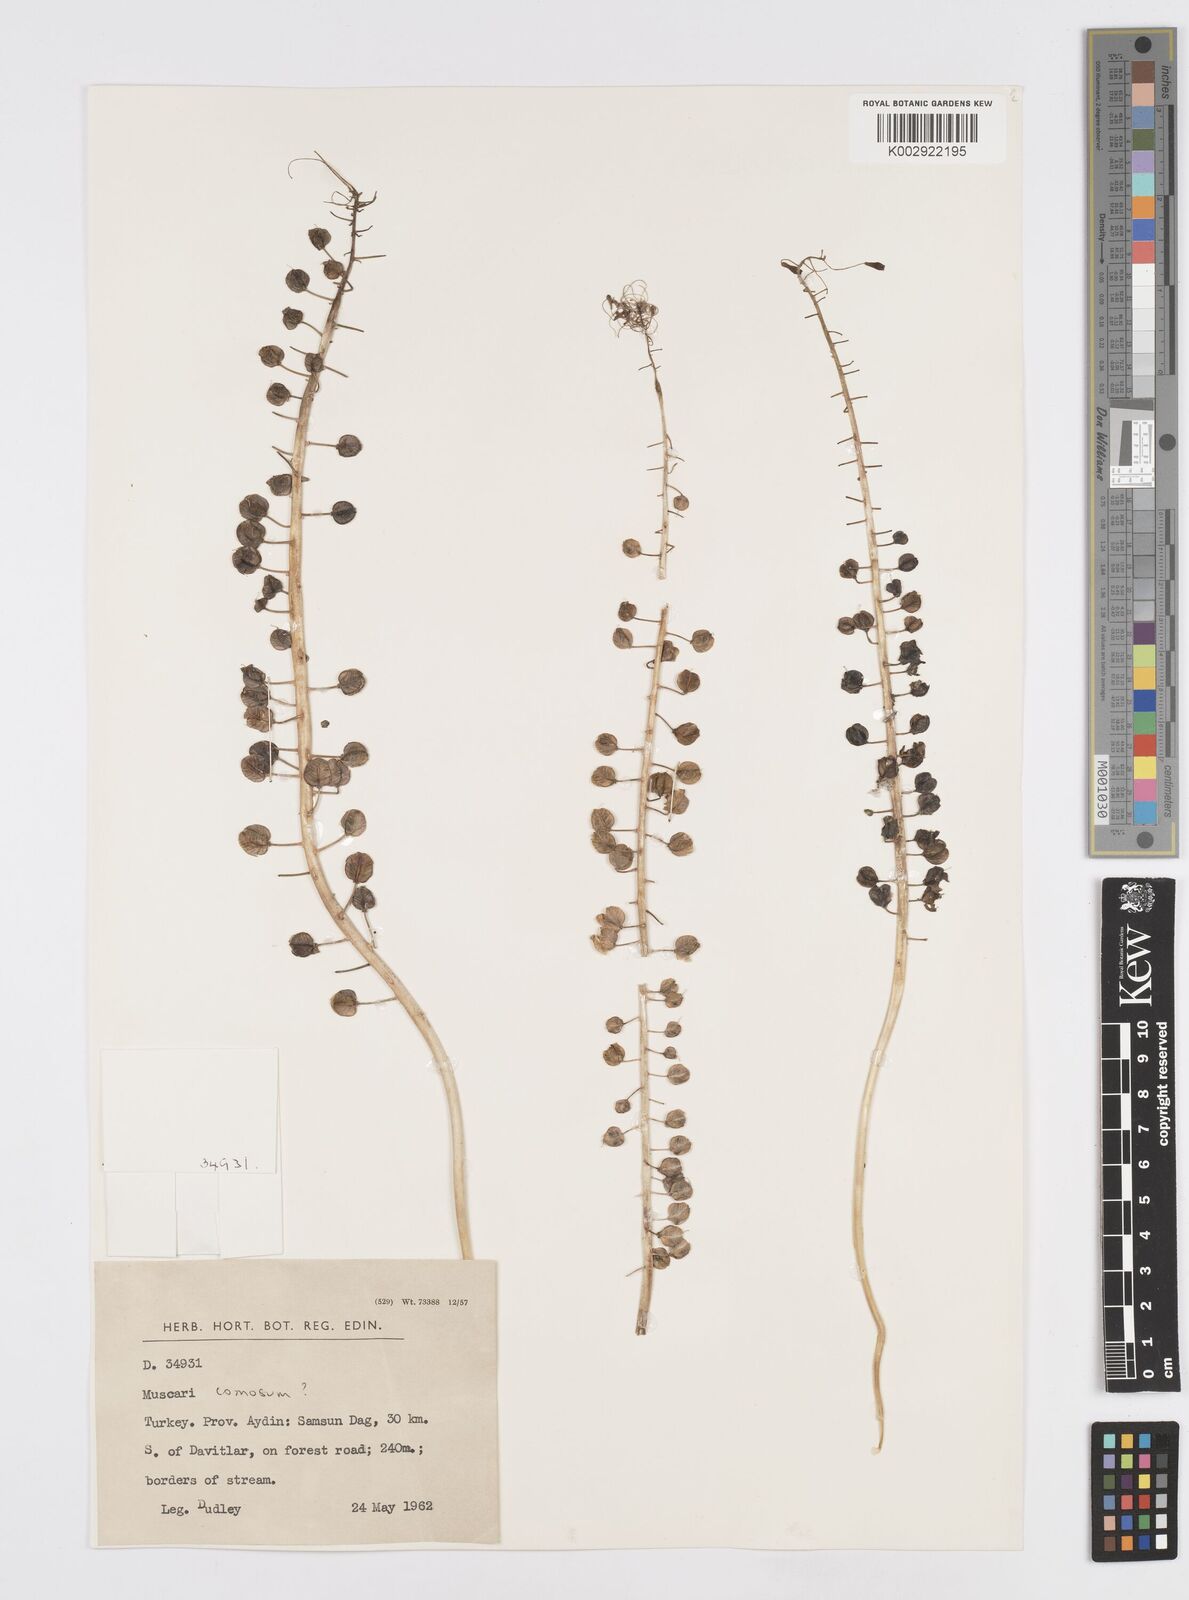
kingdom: Plantae
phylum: Tracheophyta
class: Liliopsida
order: Asparagales
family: Asparagaceae
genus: Muscari
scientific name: Muscari comosum
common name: Tassel hyacinth
